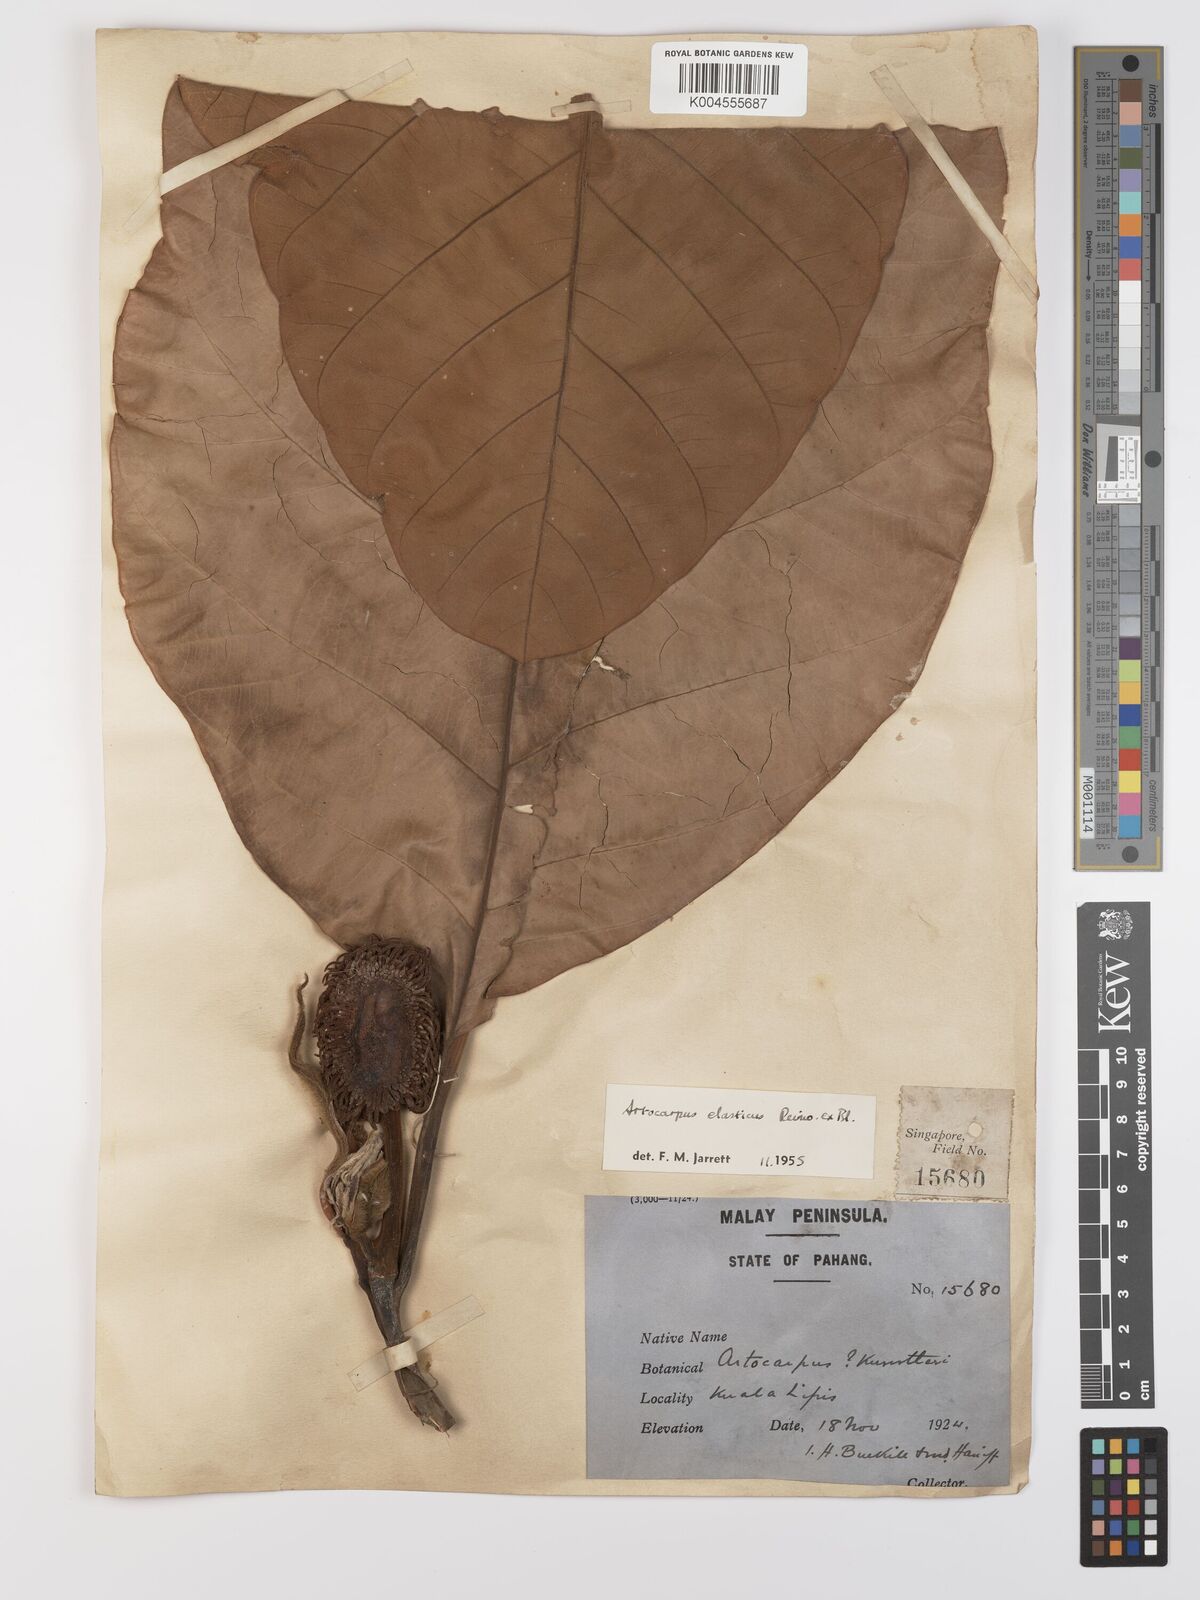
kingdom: Plantae
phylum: Tracheophyta
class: Magnoliopsida
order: Rosales
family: Moraceae
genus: Artocarpus
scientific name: Artocarpus elasticus
